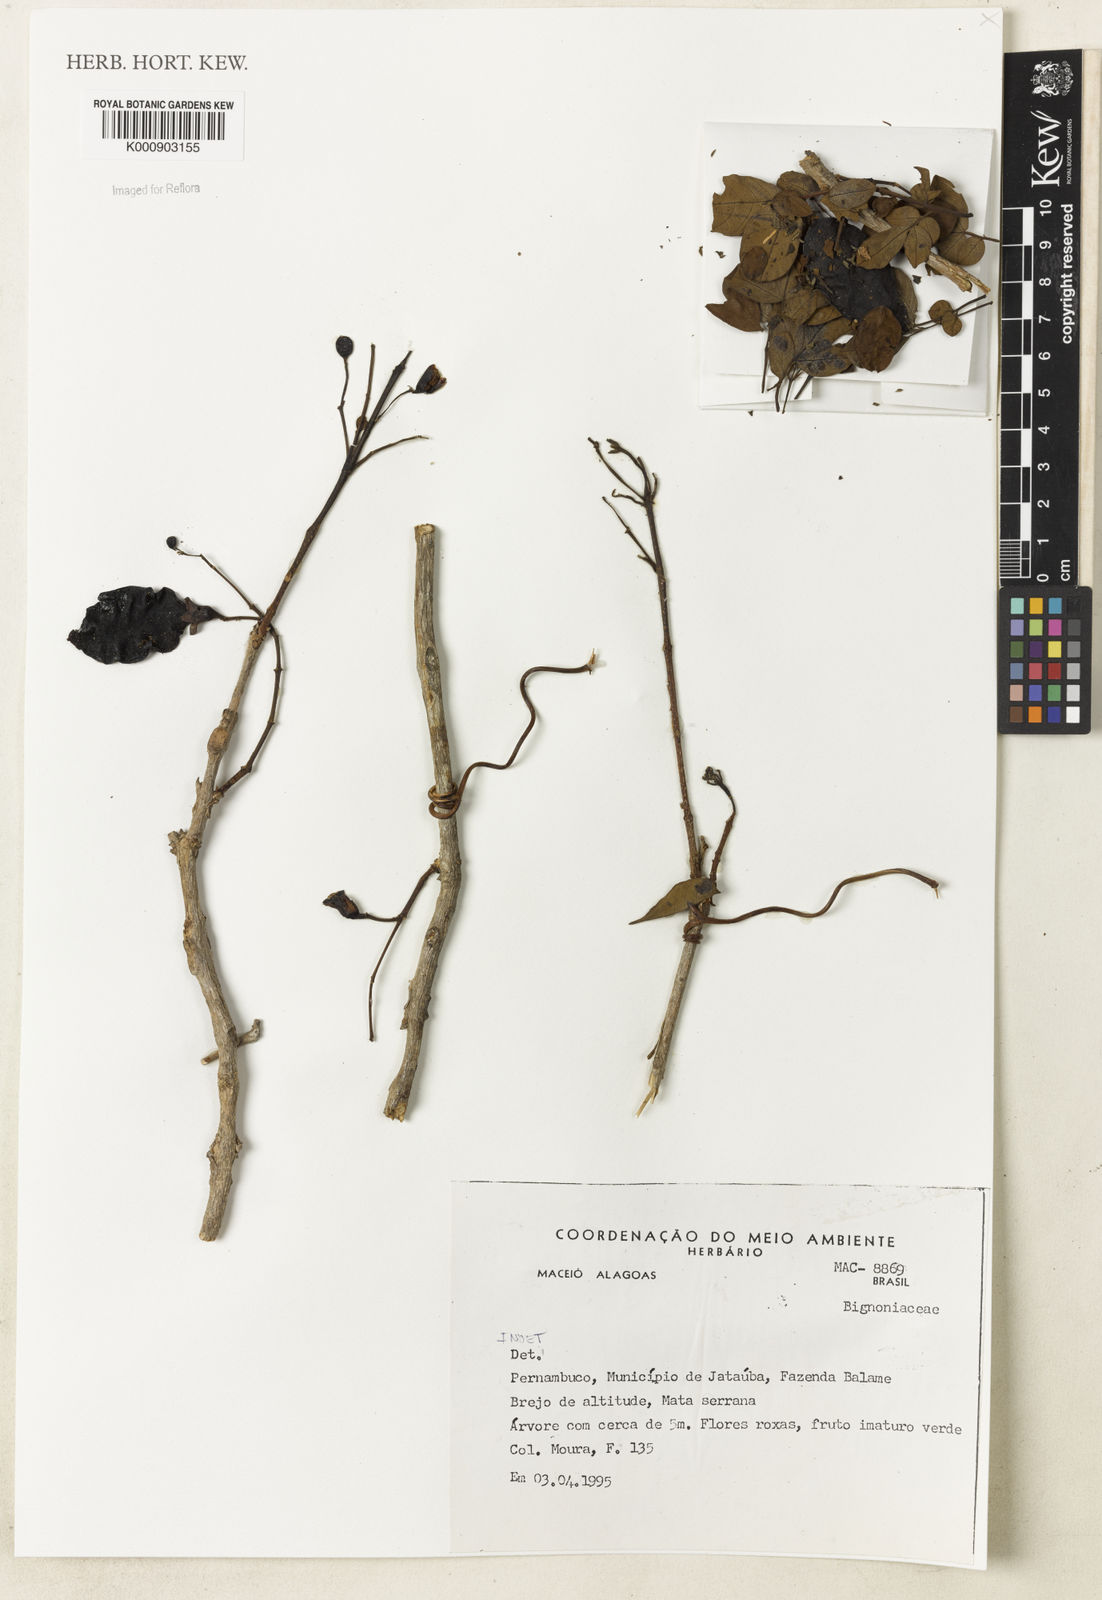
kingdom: Plantae
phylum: Tracheophyta
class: Magnoliopsida
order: Lamiales
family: Bignoniaceae
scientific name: Bignoniaceae
